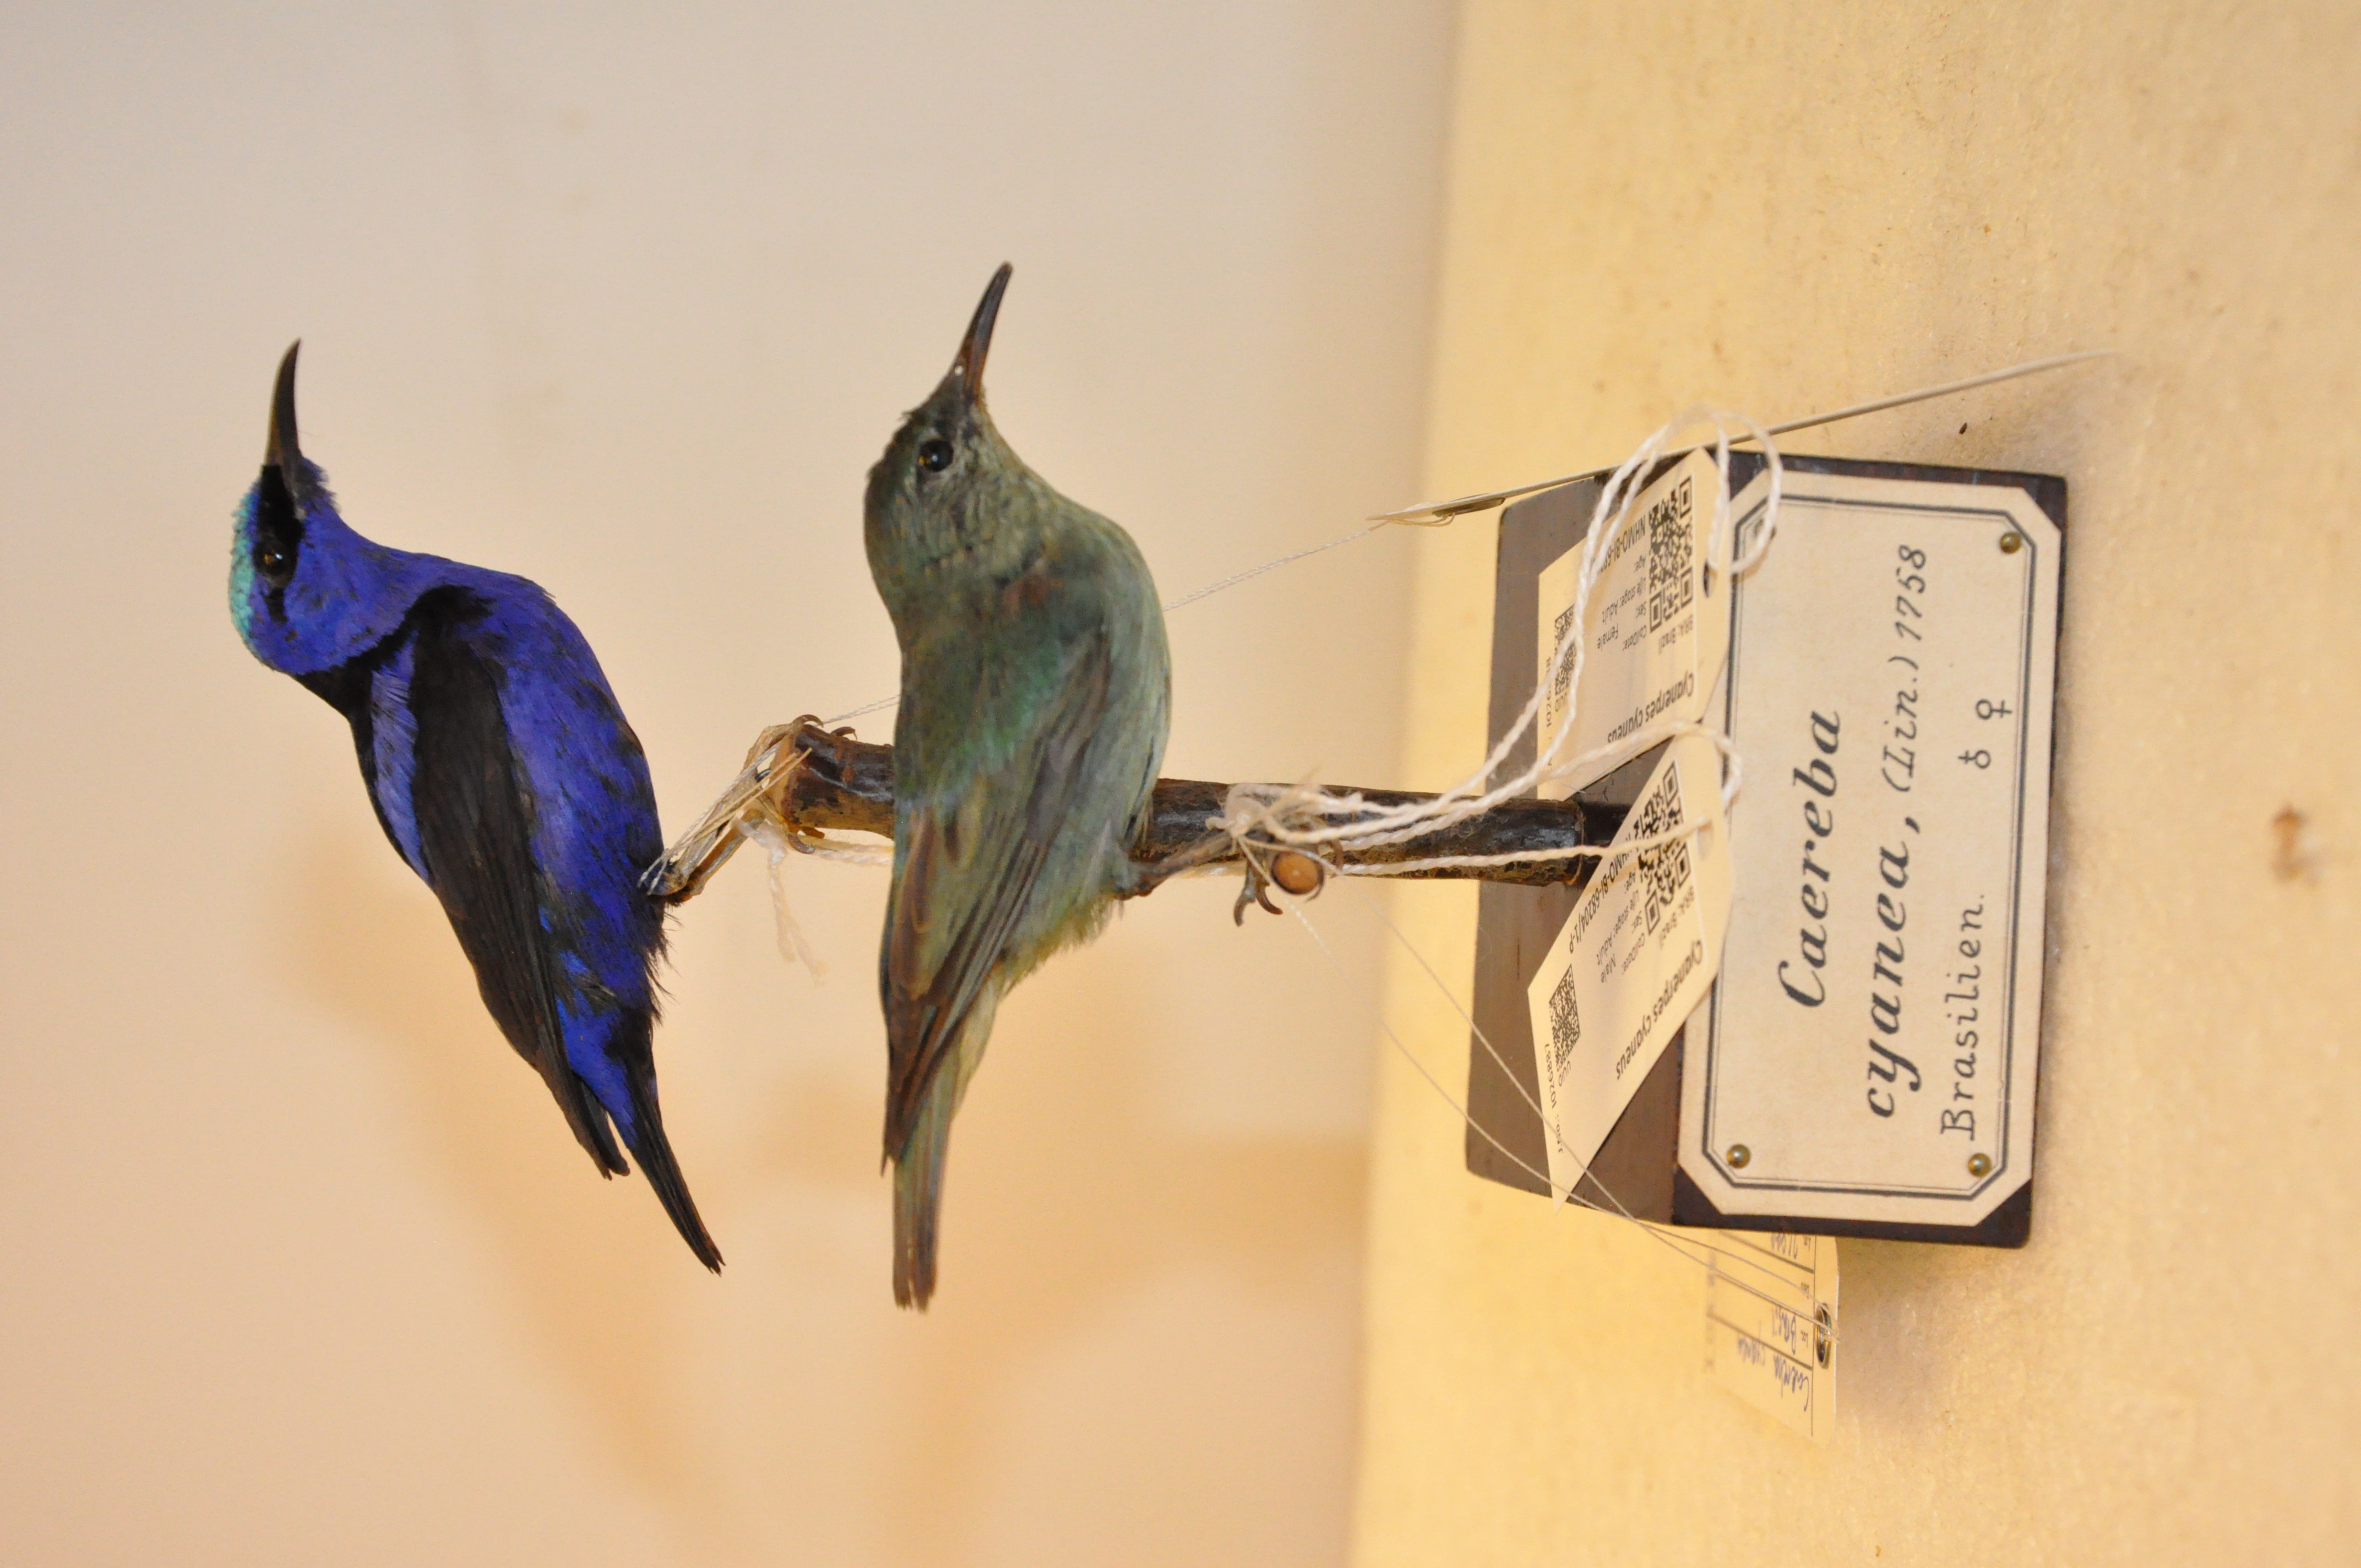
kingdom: Animalia
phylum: Chordata
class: Aves
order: Passeriformes
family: Thraupidae
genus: Cyanerpes
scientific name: Cyanerpes cyaneus
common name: Red-legged honeycreeper
